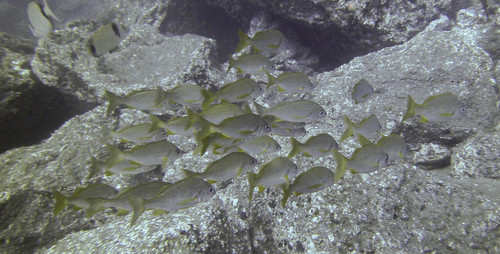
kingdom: Animalia
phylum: Chordata
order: Perciformes
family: Haemulidae
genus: Pomadasys
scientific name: Pomadasys incisus
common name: Bastard grunt
